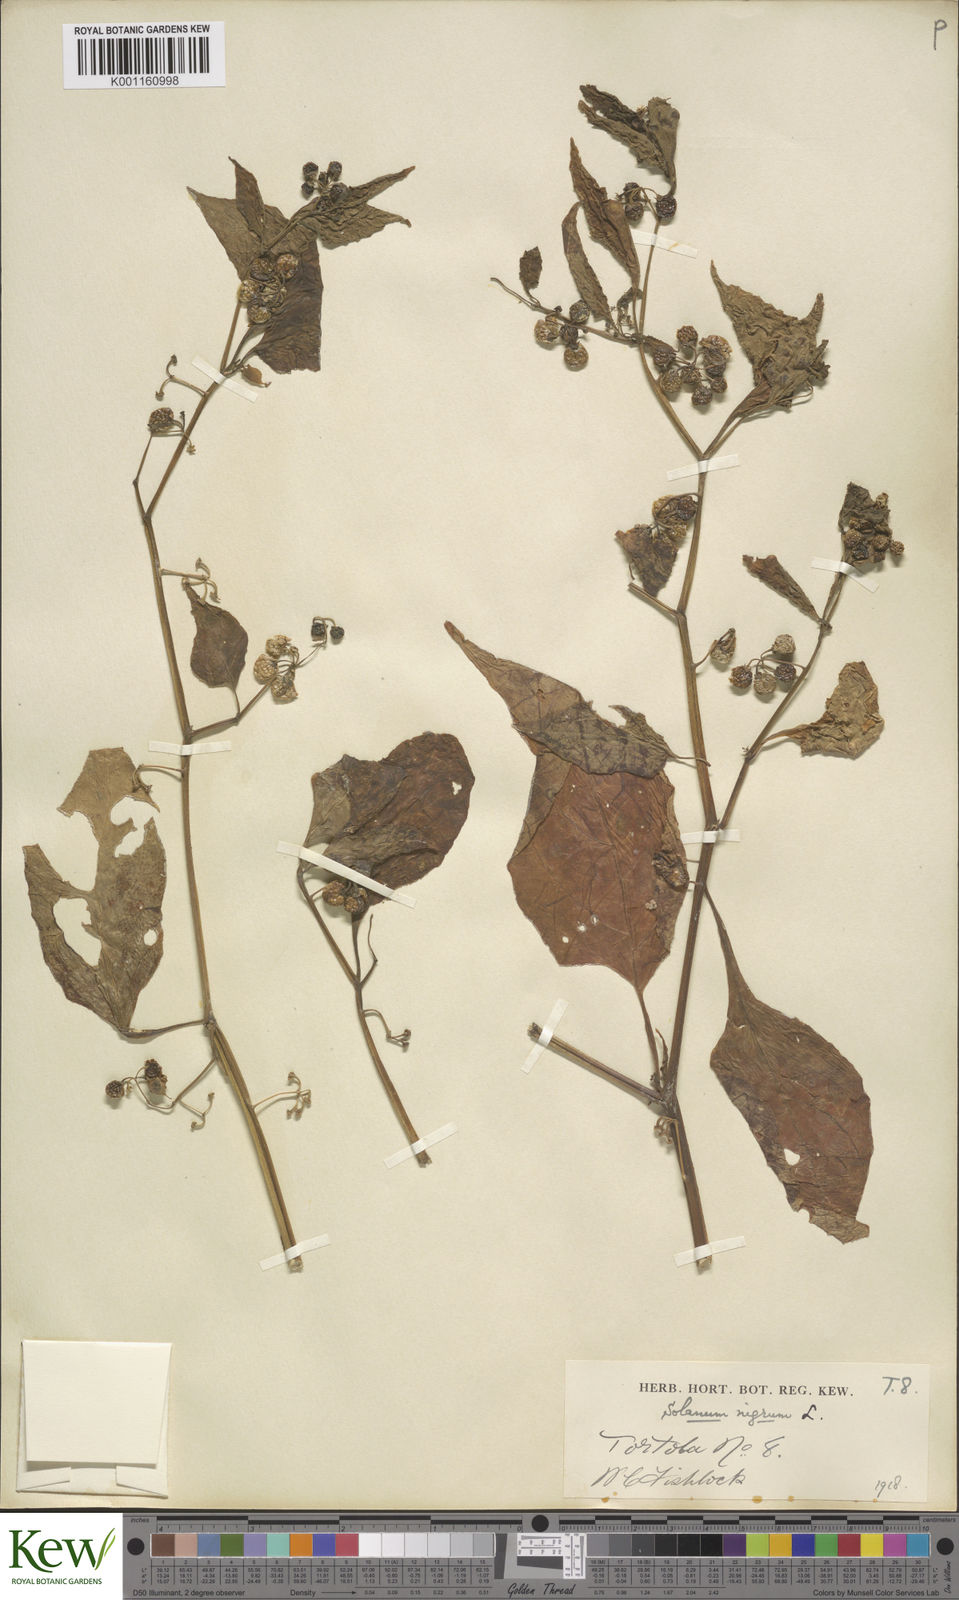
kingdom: Plantae
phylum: Tracheophyta
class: Magnoliopsida
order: Solanales
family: Solanaceae
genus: Solanum
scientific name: Solanum americanum
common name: American black nightshade
